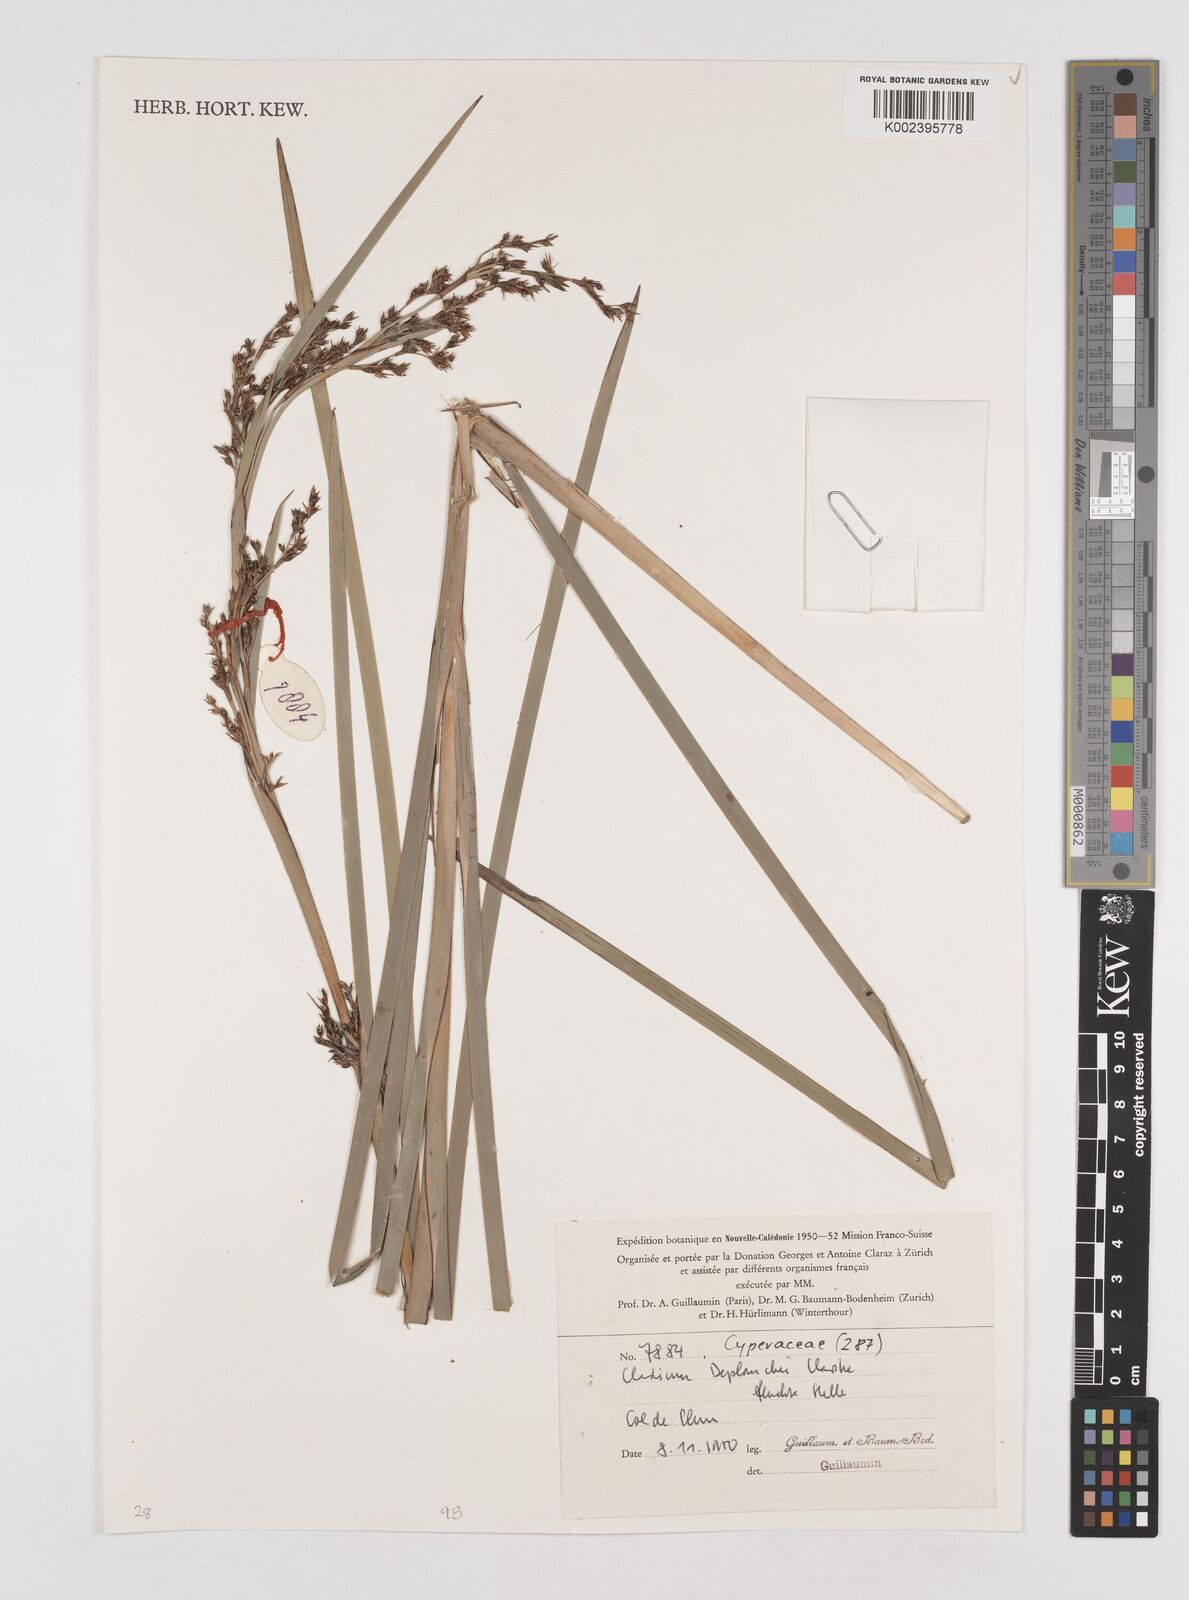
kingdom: Plantae
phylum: Tracheophyta
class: Liliopsida
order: Poales
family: Cyperaceae
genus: Machaerina
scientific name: Machaerina deplanchei
